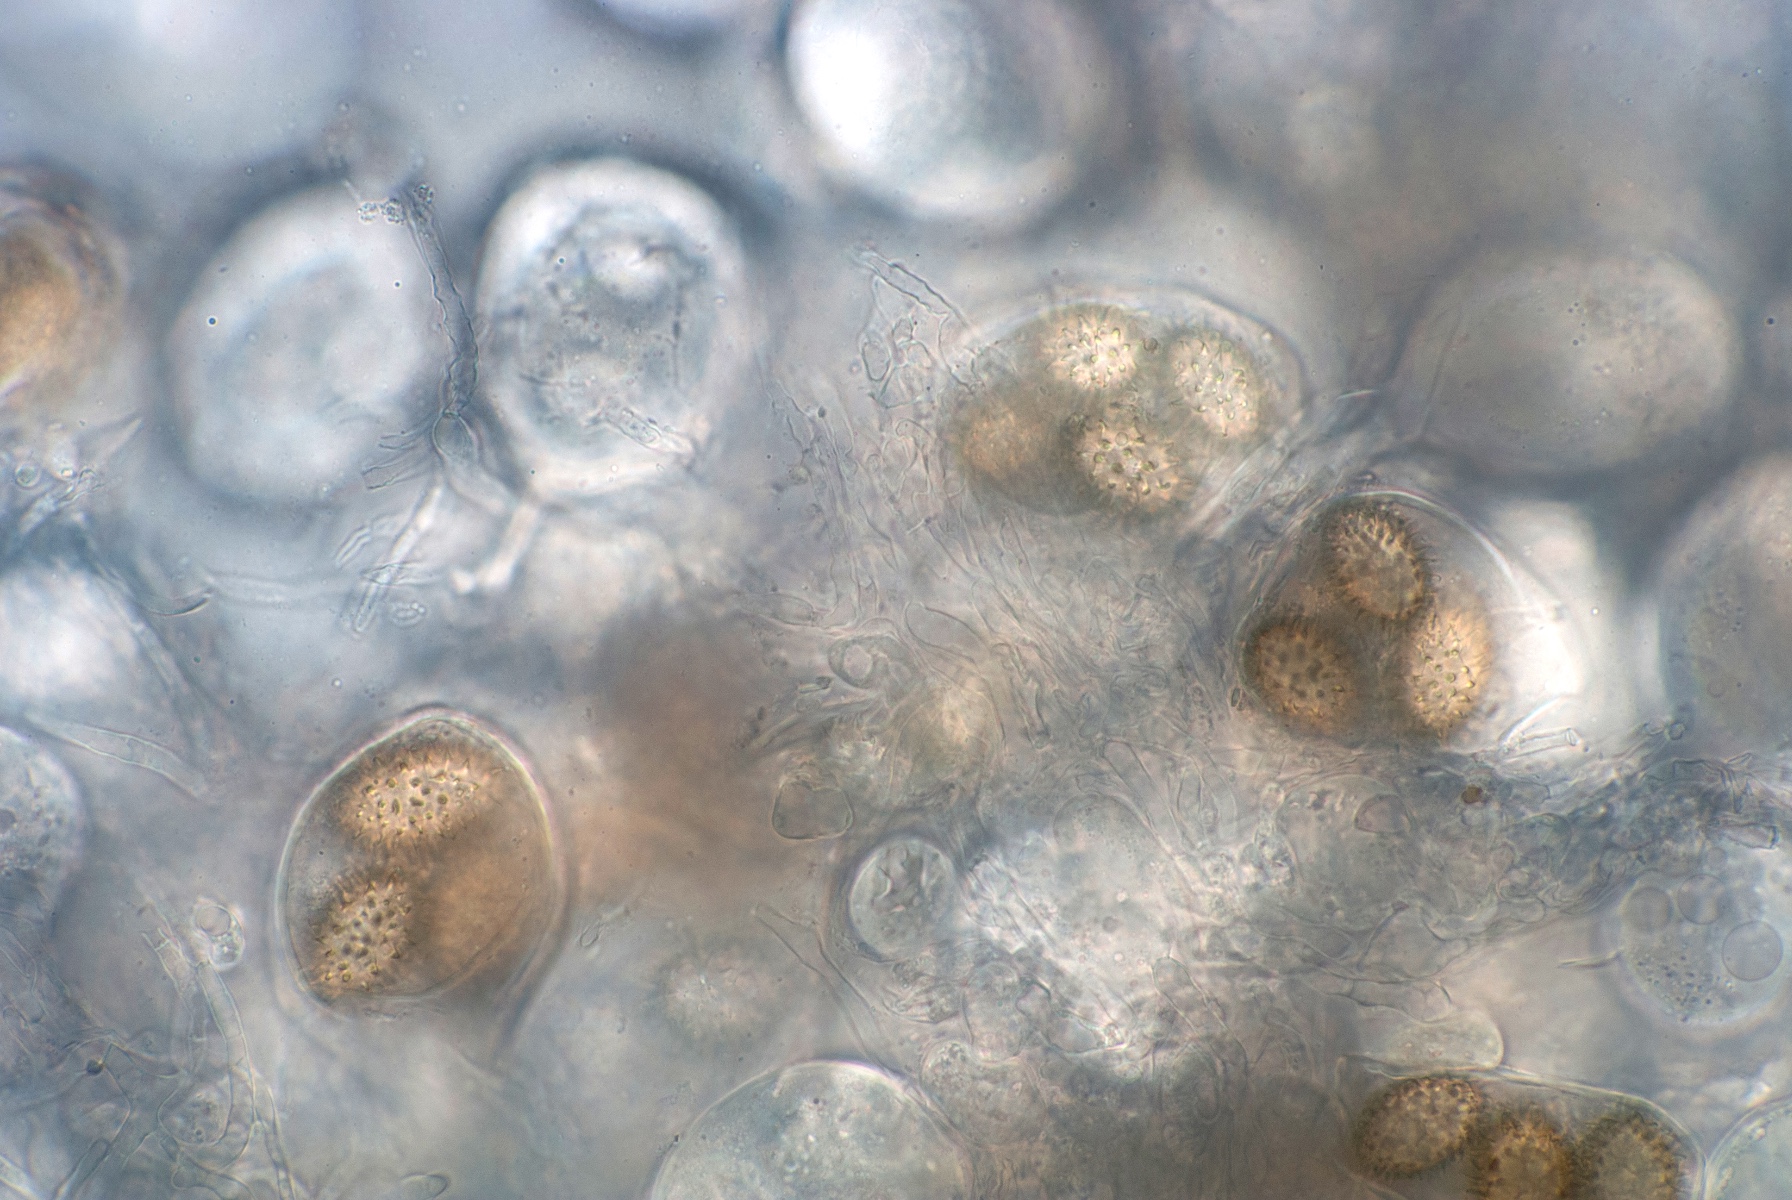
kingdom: Fungi
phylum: Ascomycota
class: Pezizomycetes
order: Pezizales
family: Tuberaceae
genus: Tuber
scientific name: Tuber rufum
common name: rødbrun trøffel
